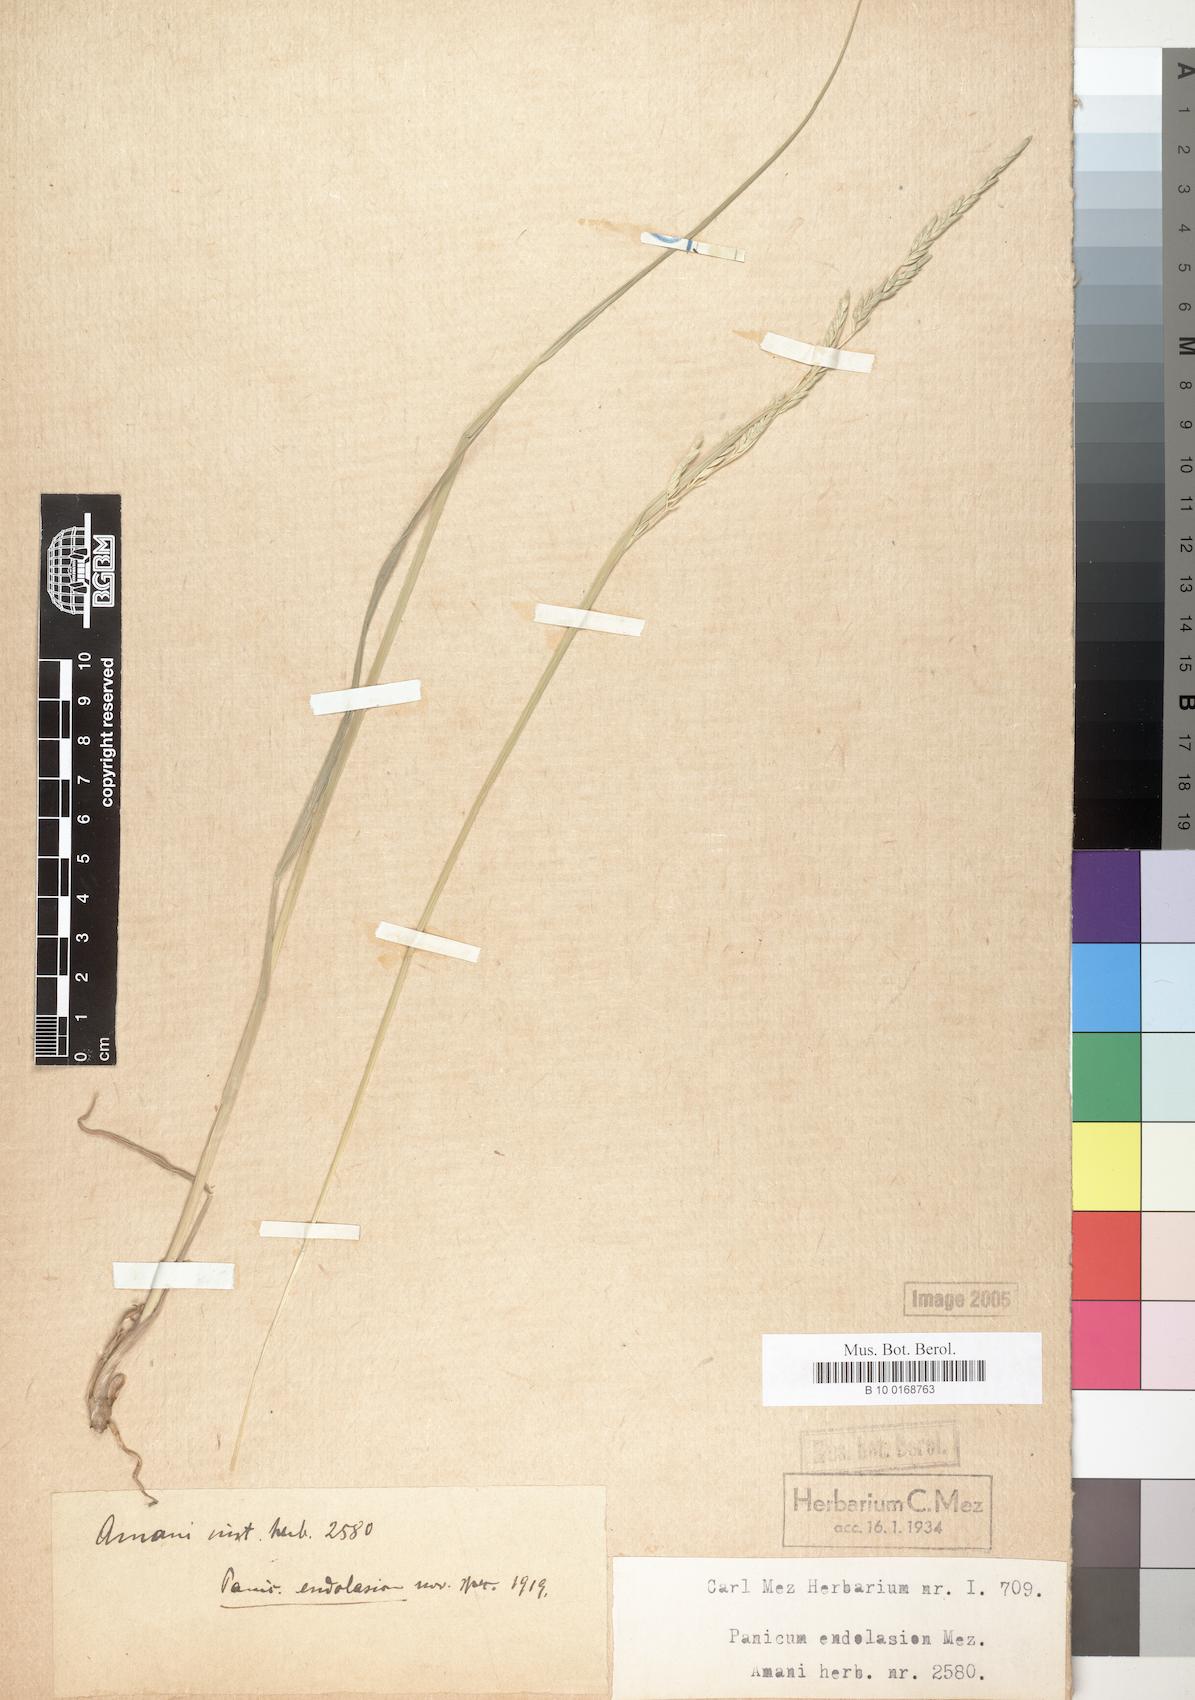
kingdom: Plantae
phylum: Tracheophyta
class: Liliopsida
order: Poales
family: Poaceae
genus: Entolasia
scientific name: Entolasia imbricata
